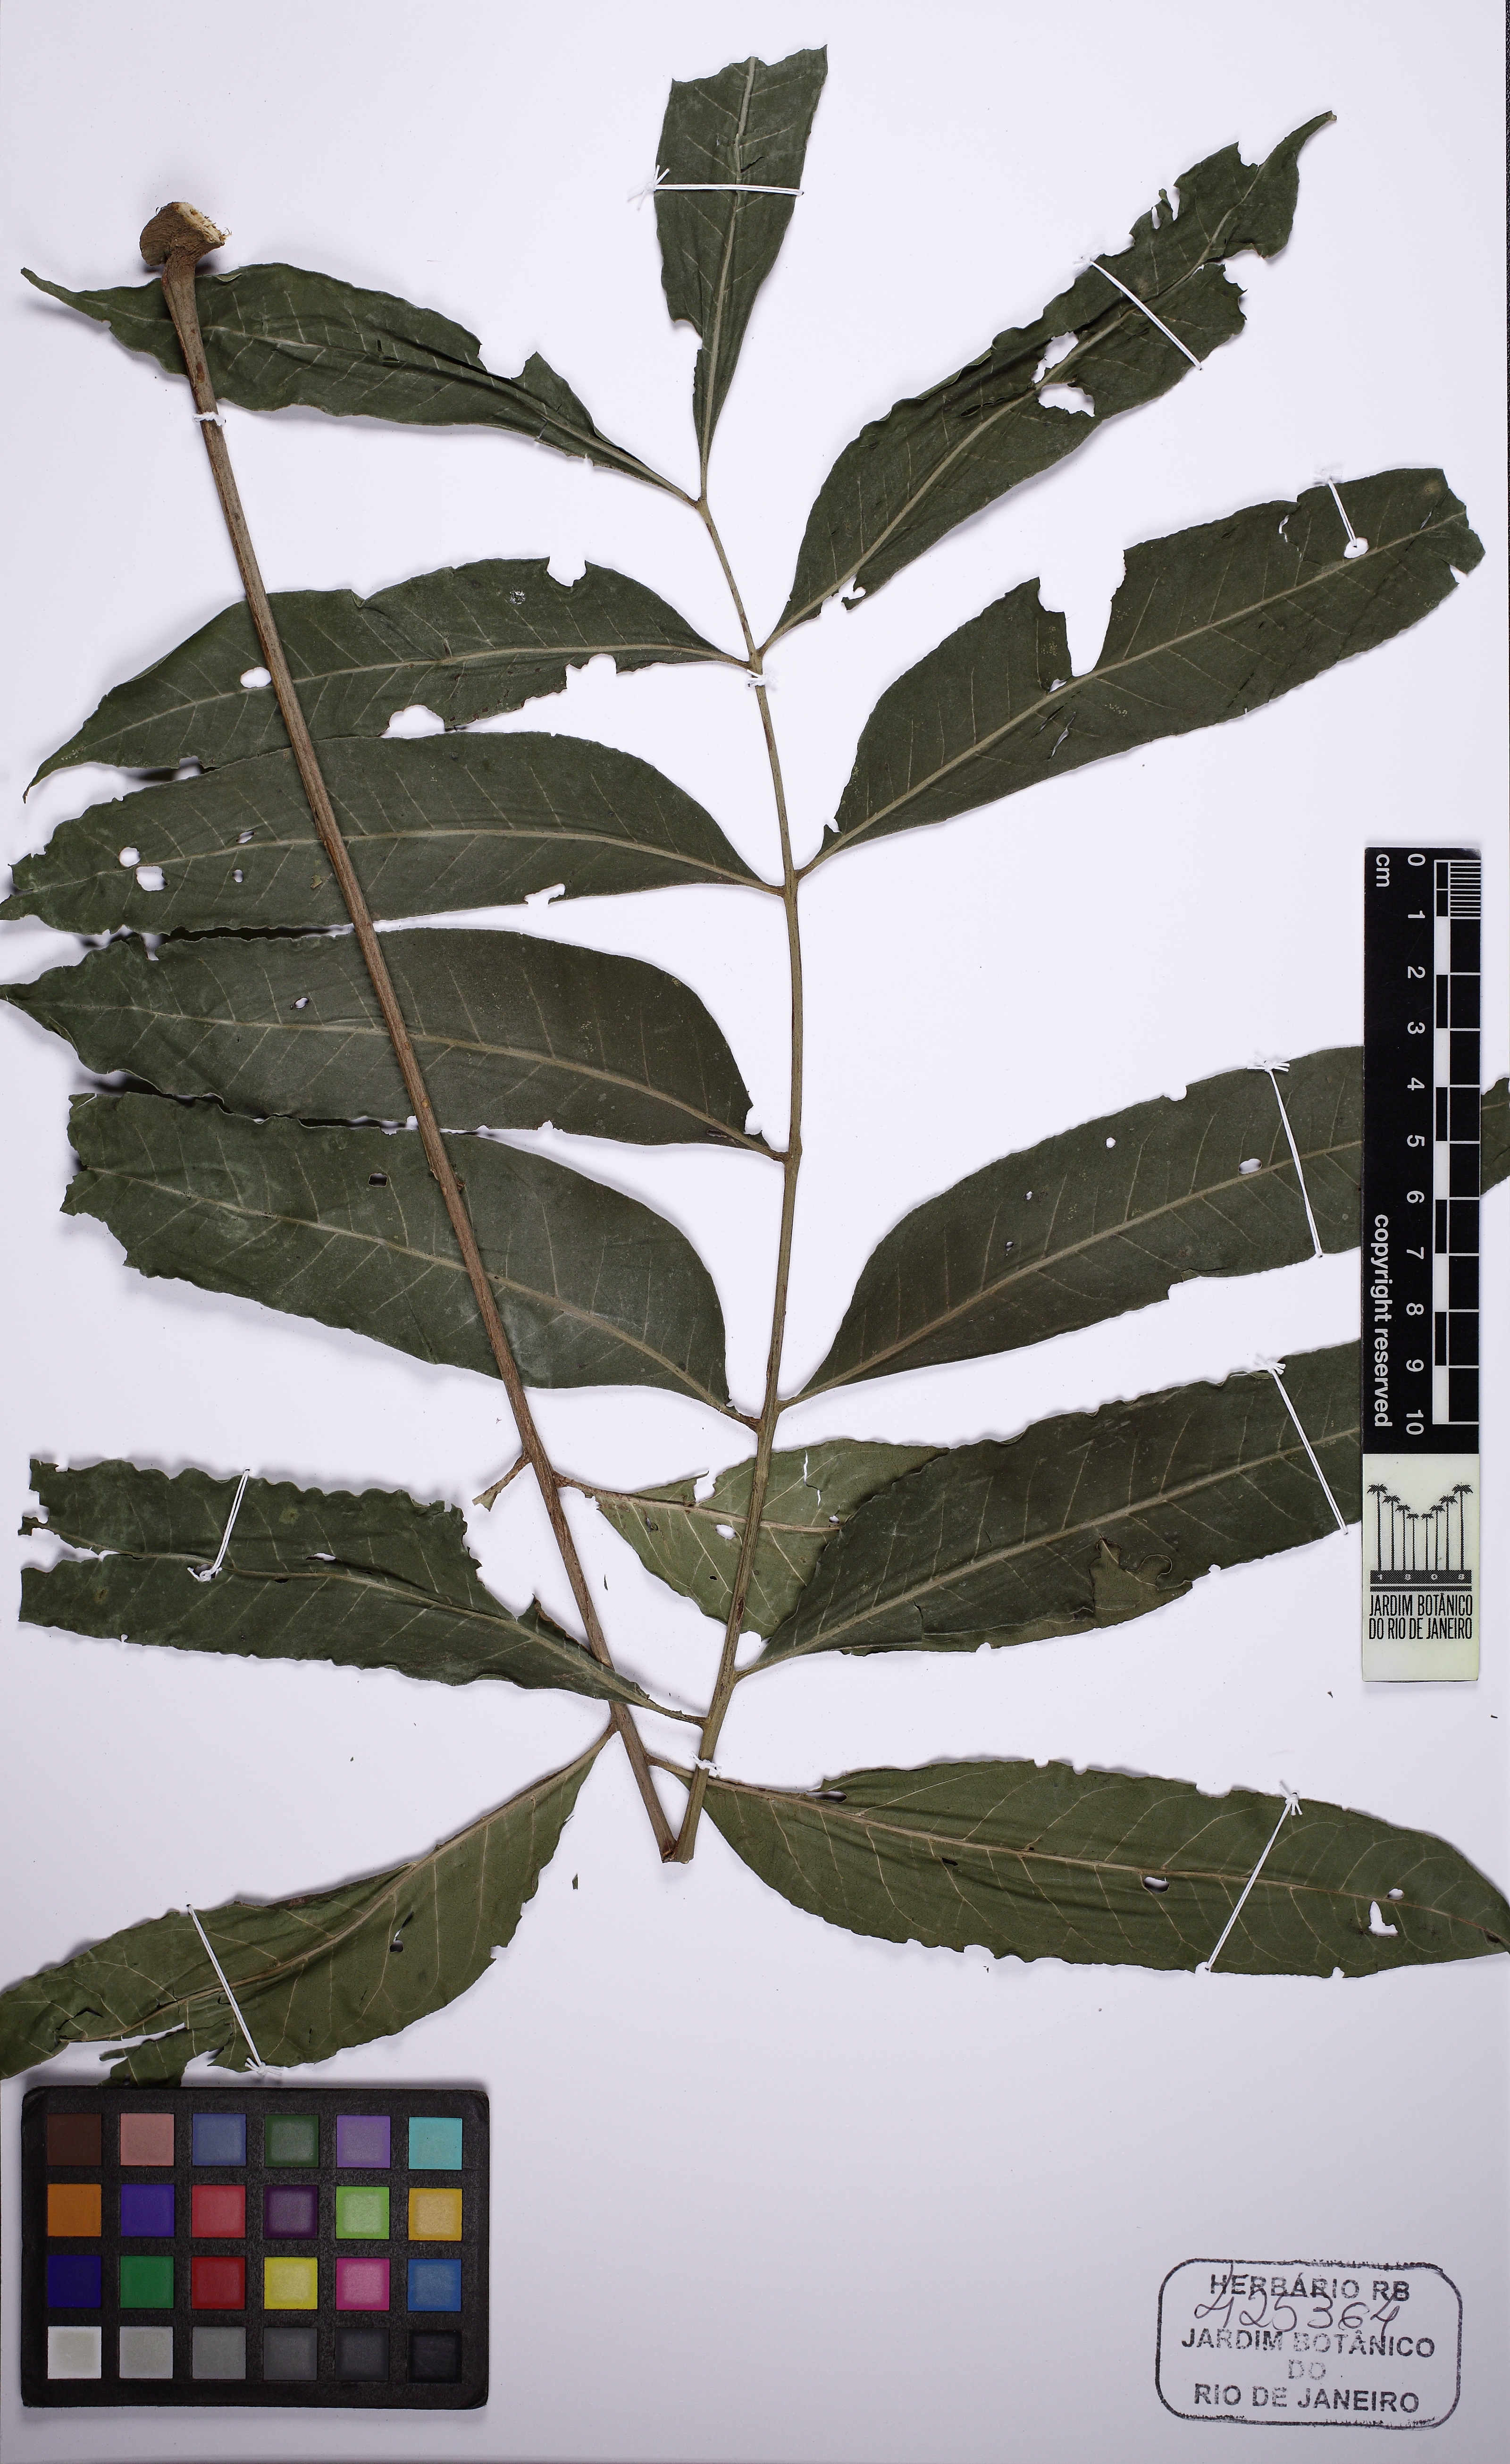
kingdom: Plantae
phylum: Tracheophyta
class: Magnoliopsida
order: Sapindales
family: Meliaceae
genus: Cabralea
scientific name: Cabralea canjerana
